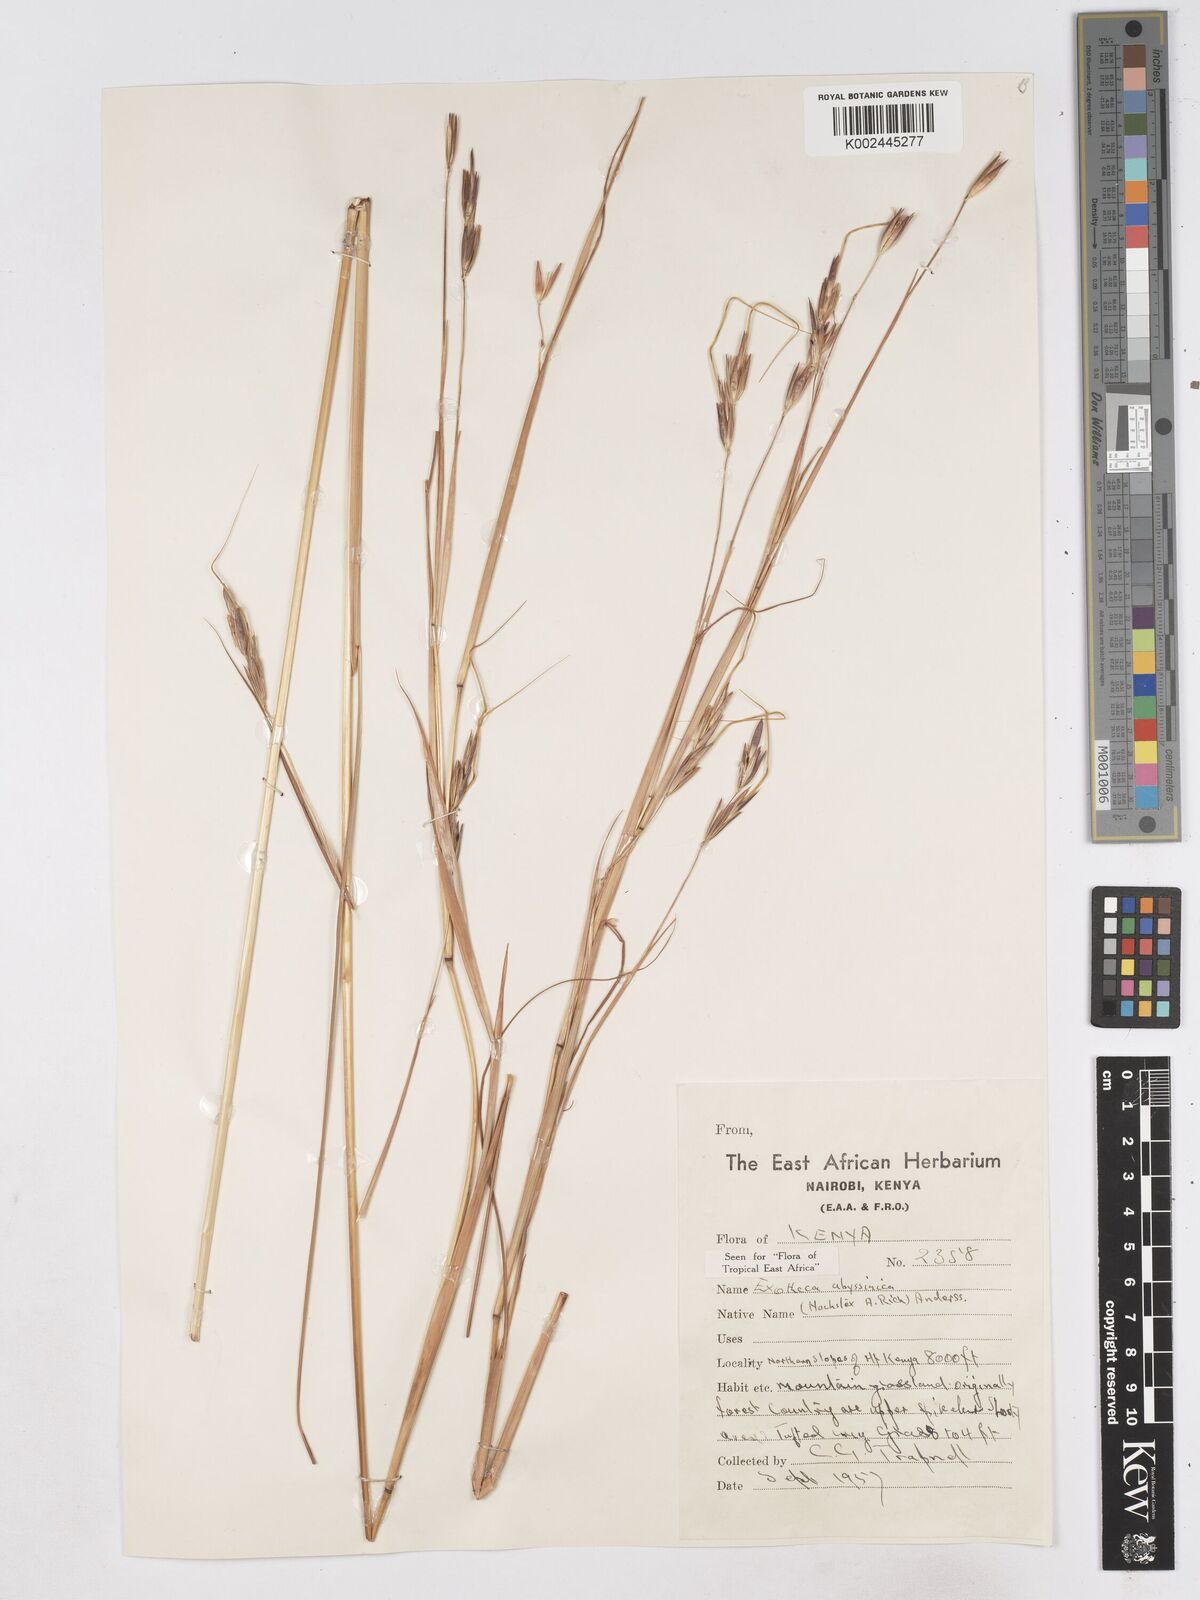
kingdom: Plantae
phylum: Tracheophyta
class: Liliopsida
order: Poales
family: Poaceae
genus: Exotheca
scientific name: Exotheca abyssinica
